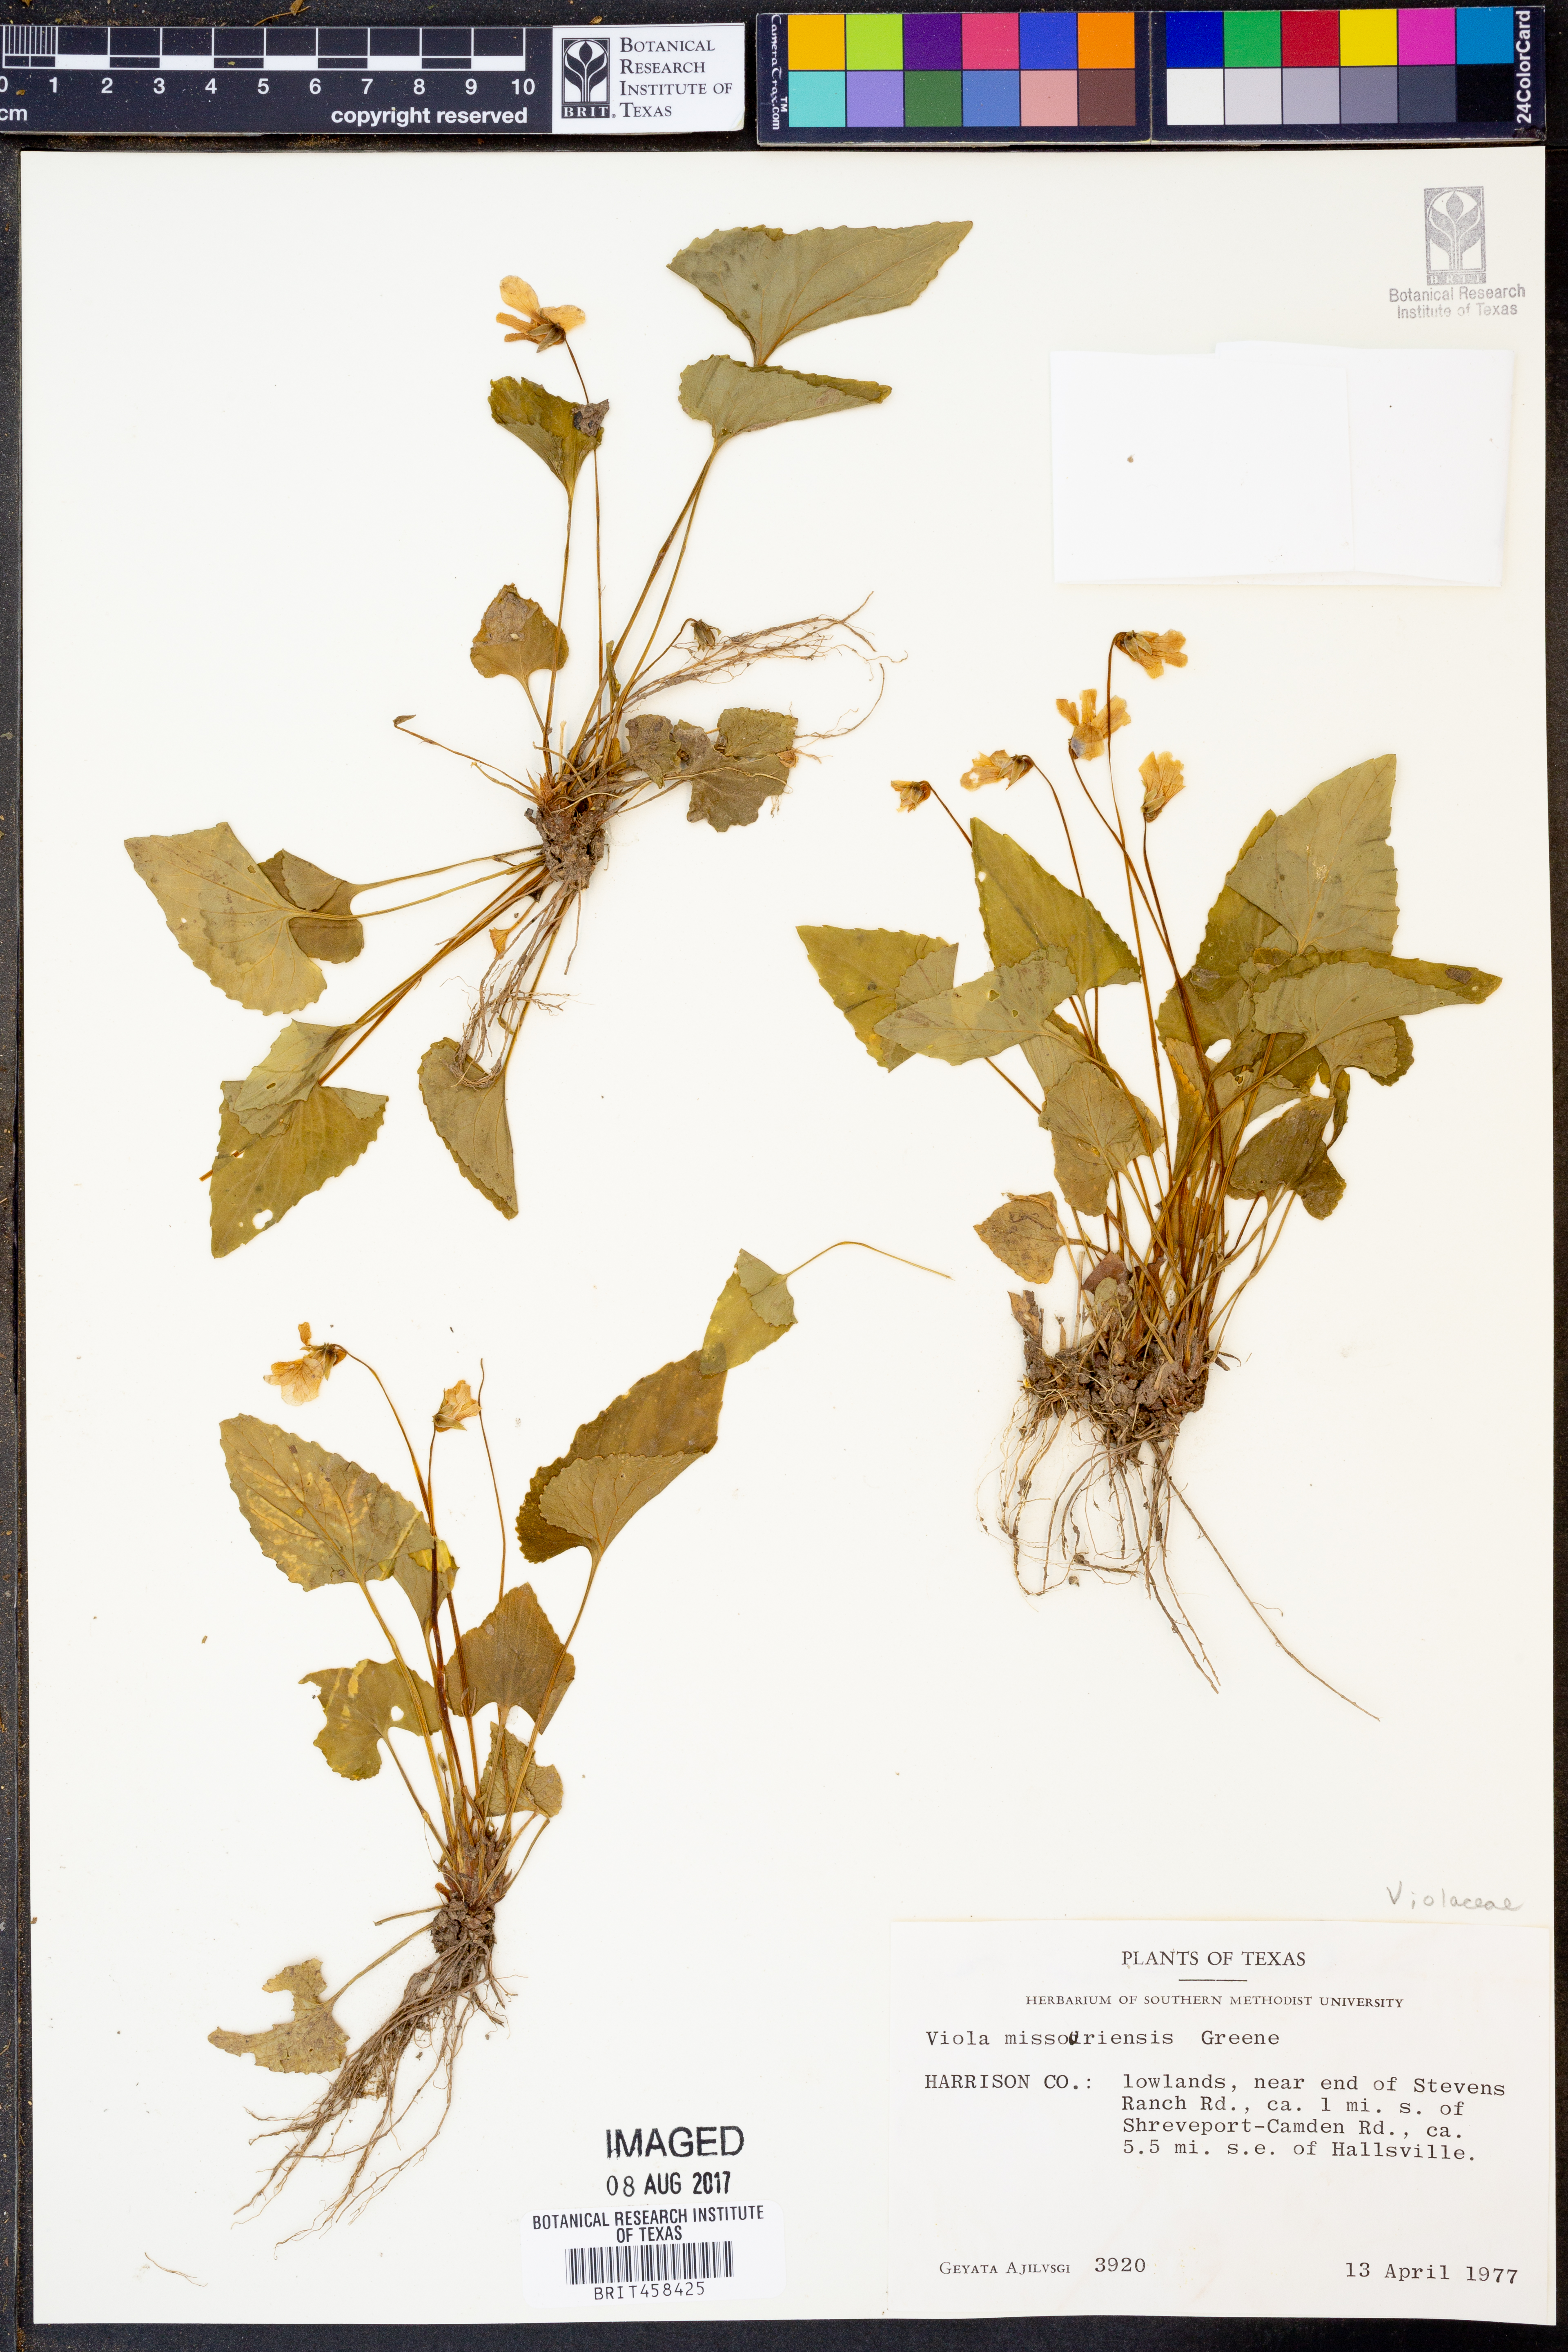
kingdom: Plantae
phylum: Tracheophyta
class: Magnoliopsida
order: Malpighiales
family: Violaceae
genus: Viola
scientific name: Viola missouriensis
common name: Missouri violet
